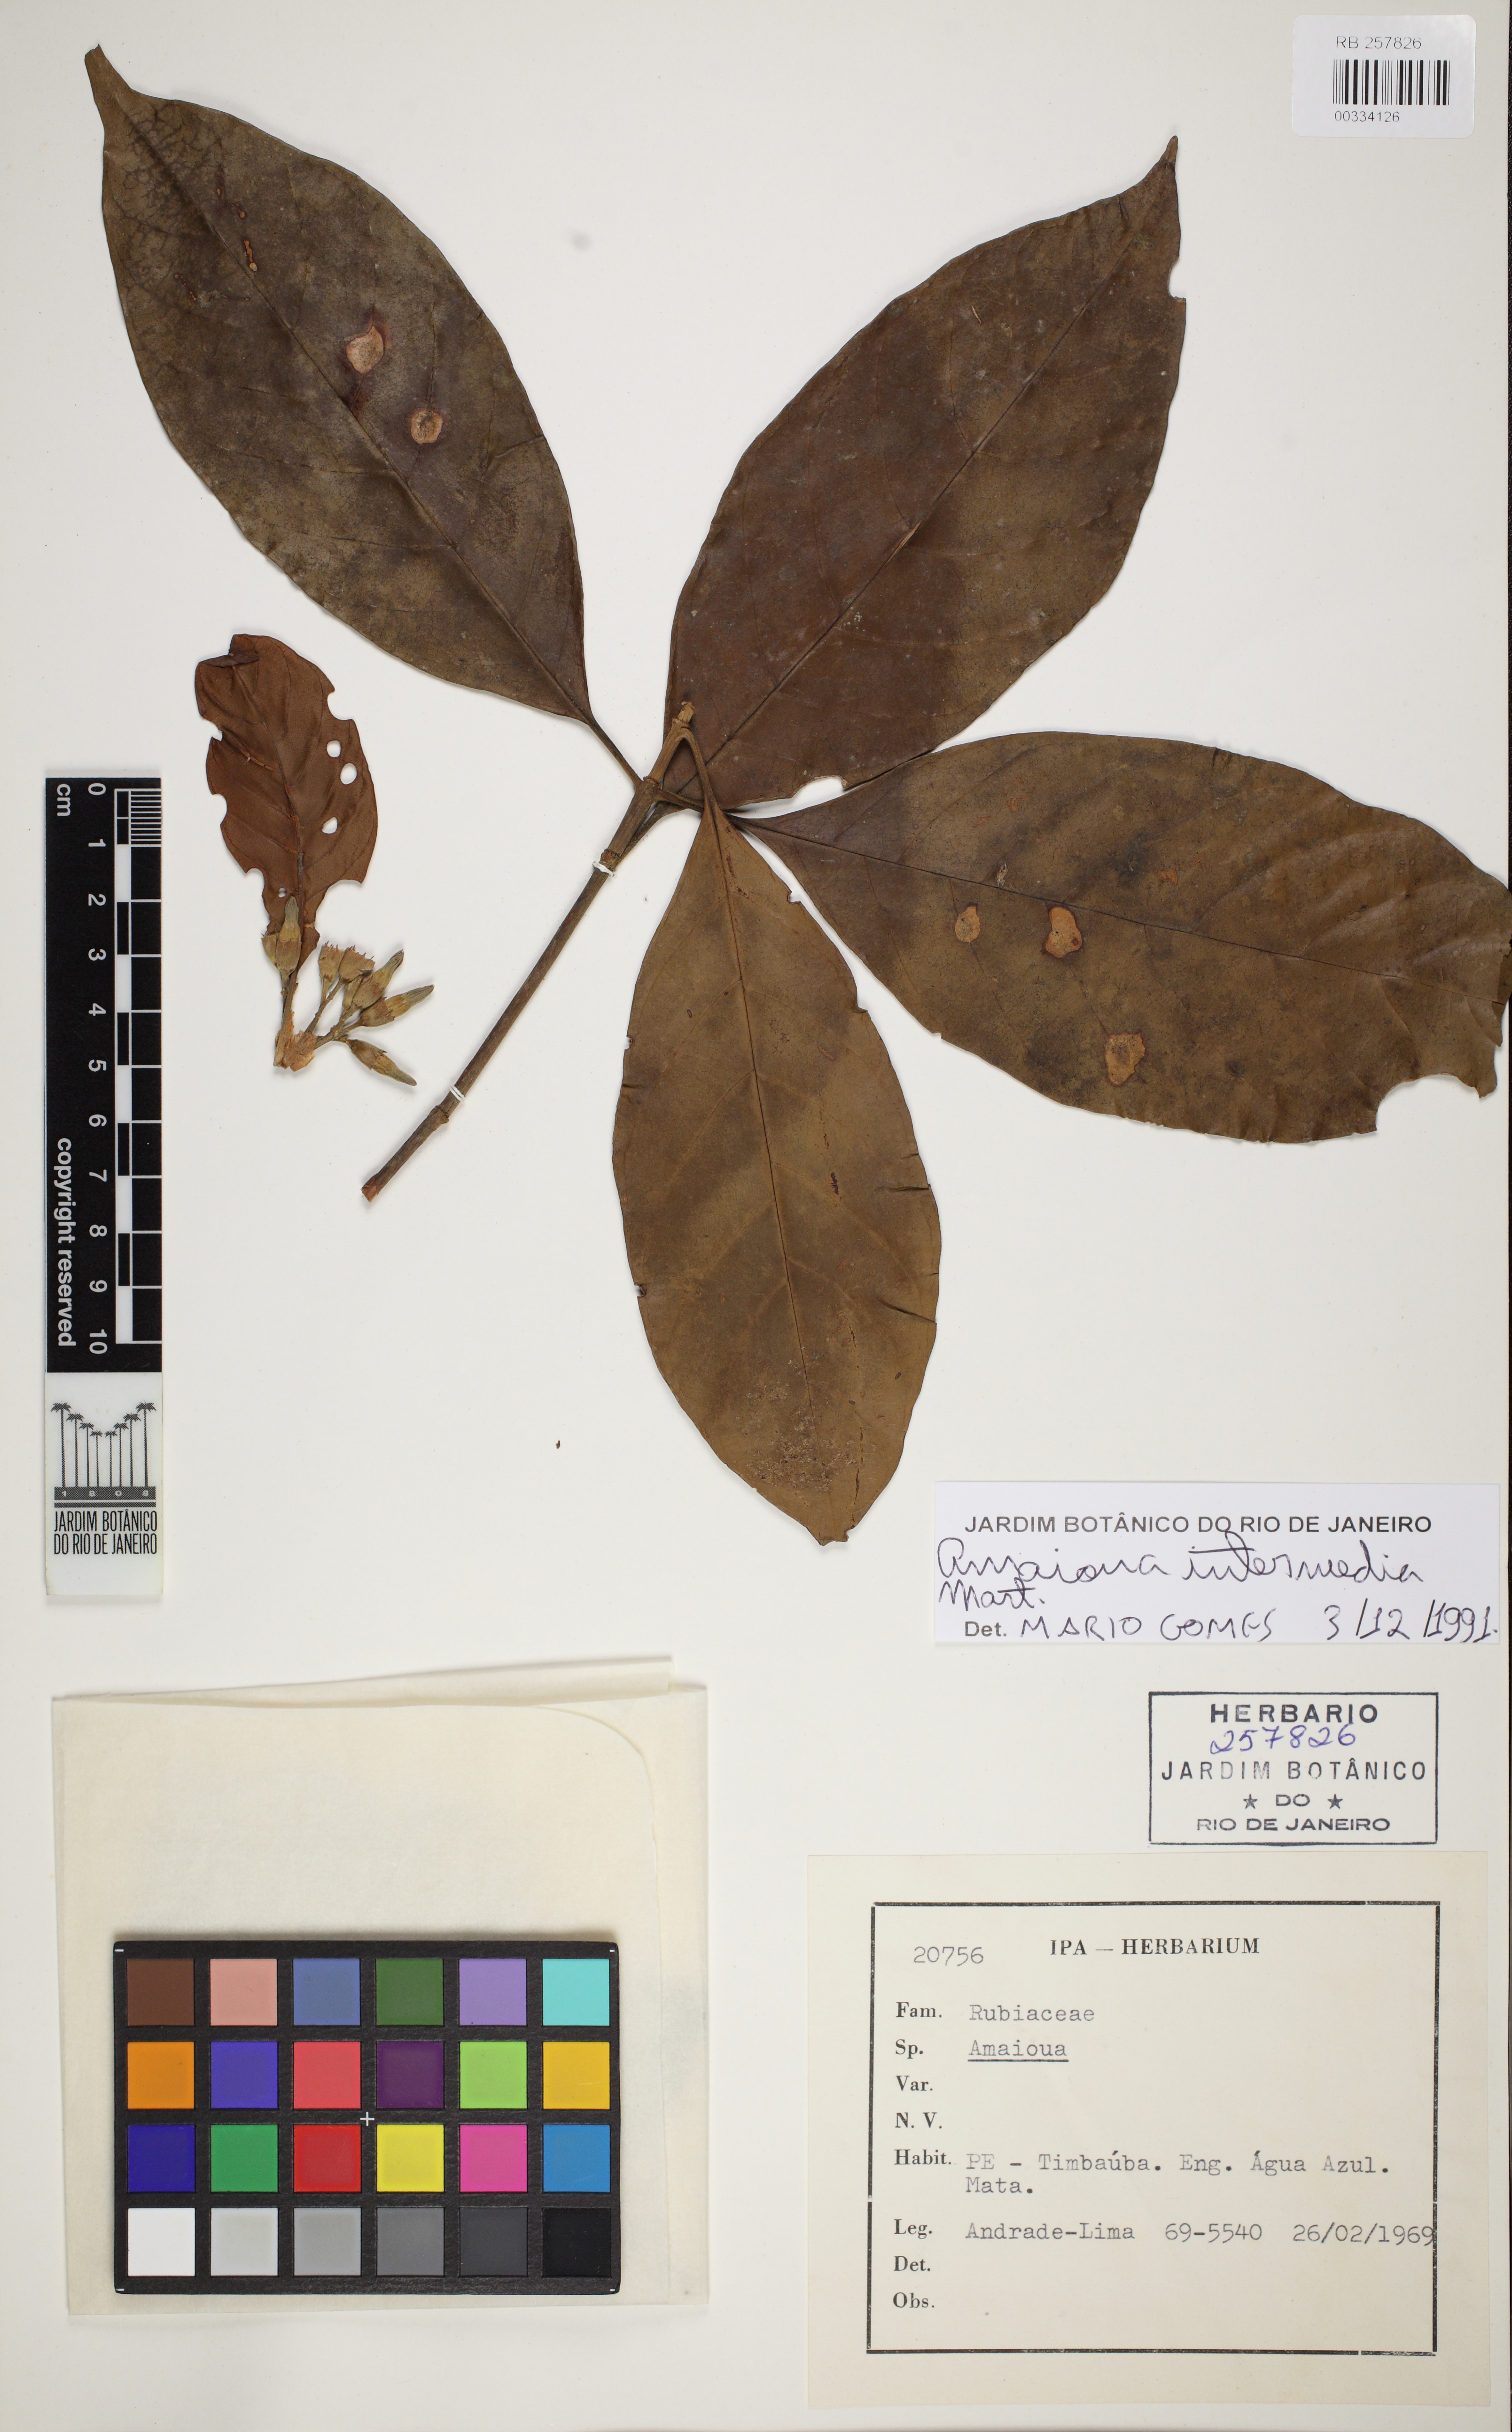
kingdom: Plantae
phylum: Tracheophyta
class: Magnoliopsida
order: Gentianales
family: Rubiaceae
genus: Amaioua
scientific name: Amaioua intermedia
